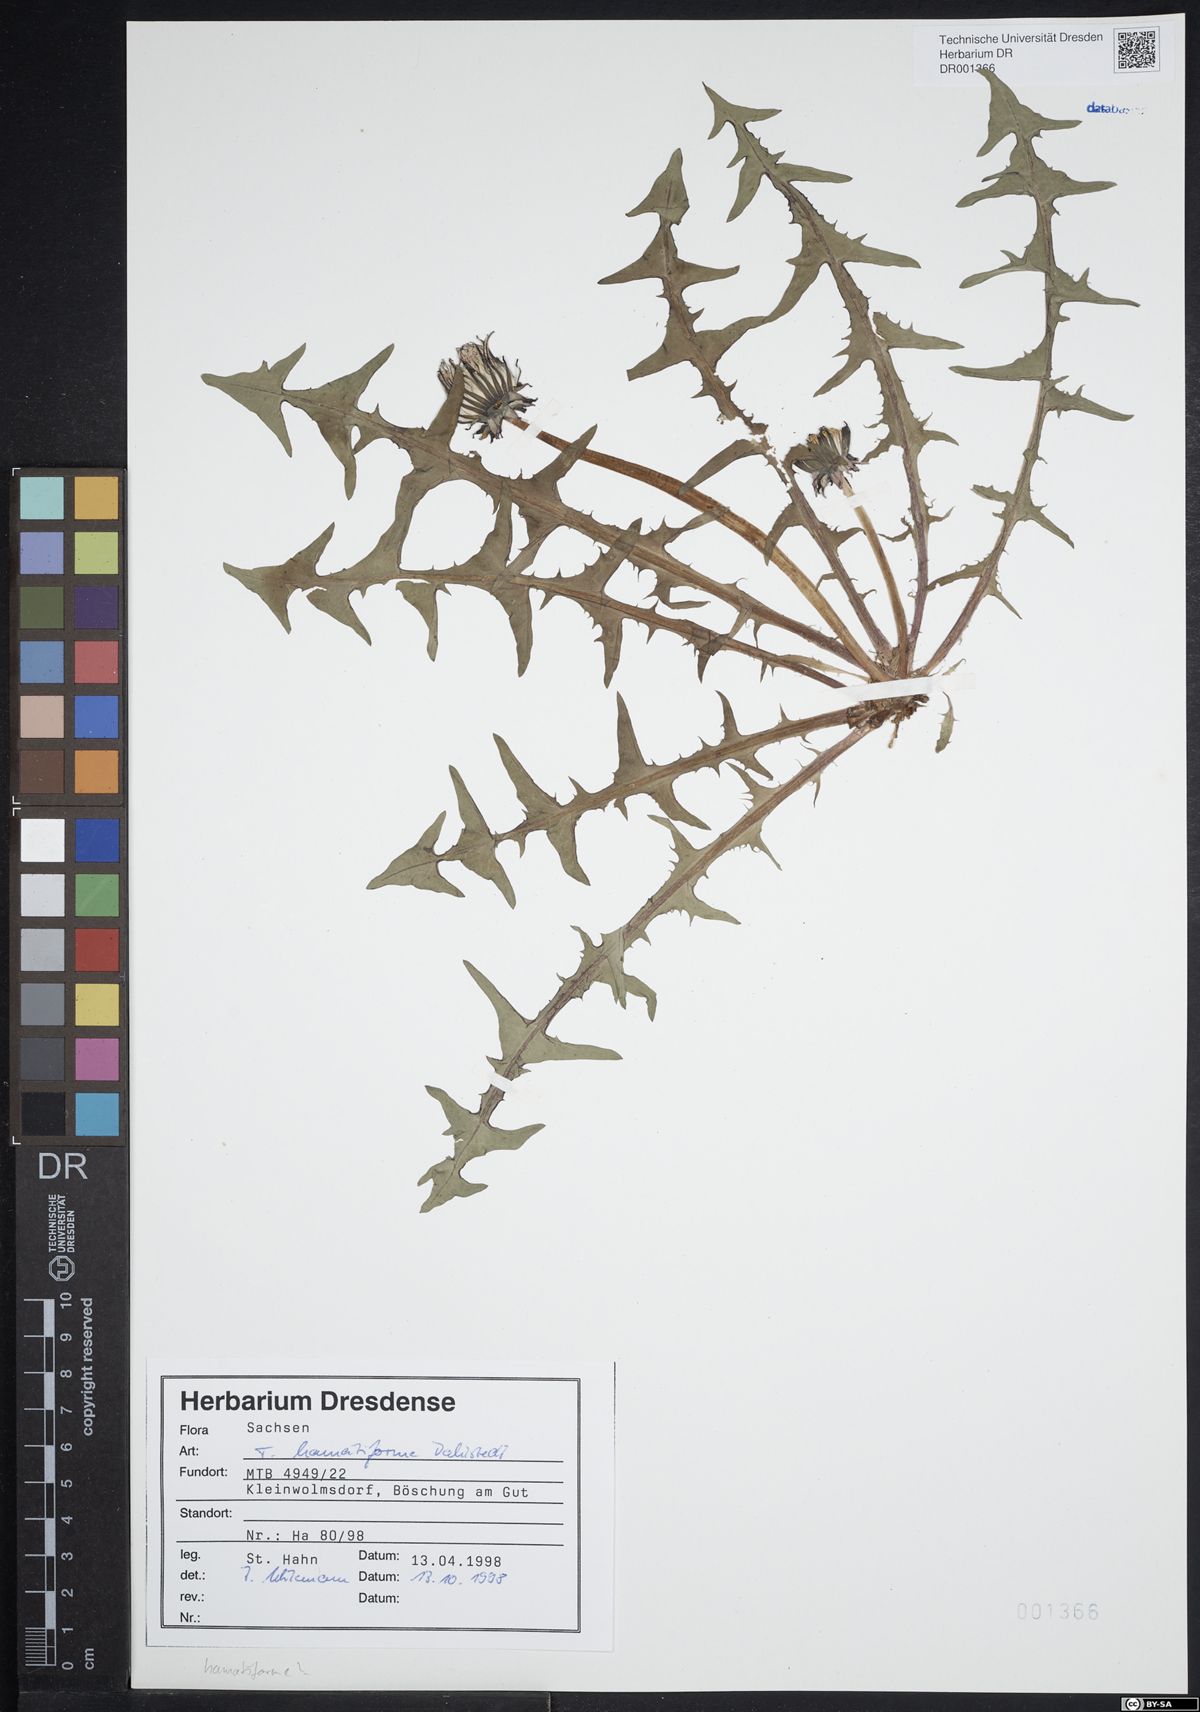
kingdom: Plantae
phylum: Tracheophyta
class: Magnoliopsida
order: Asterales
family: Asteraceae
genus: Taraxacum
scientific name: Taraxacum hamatiforme
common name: Asymmetrical hook-lobed dandelion
